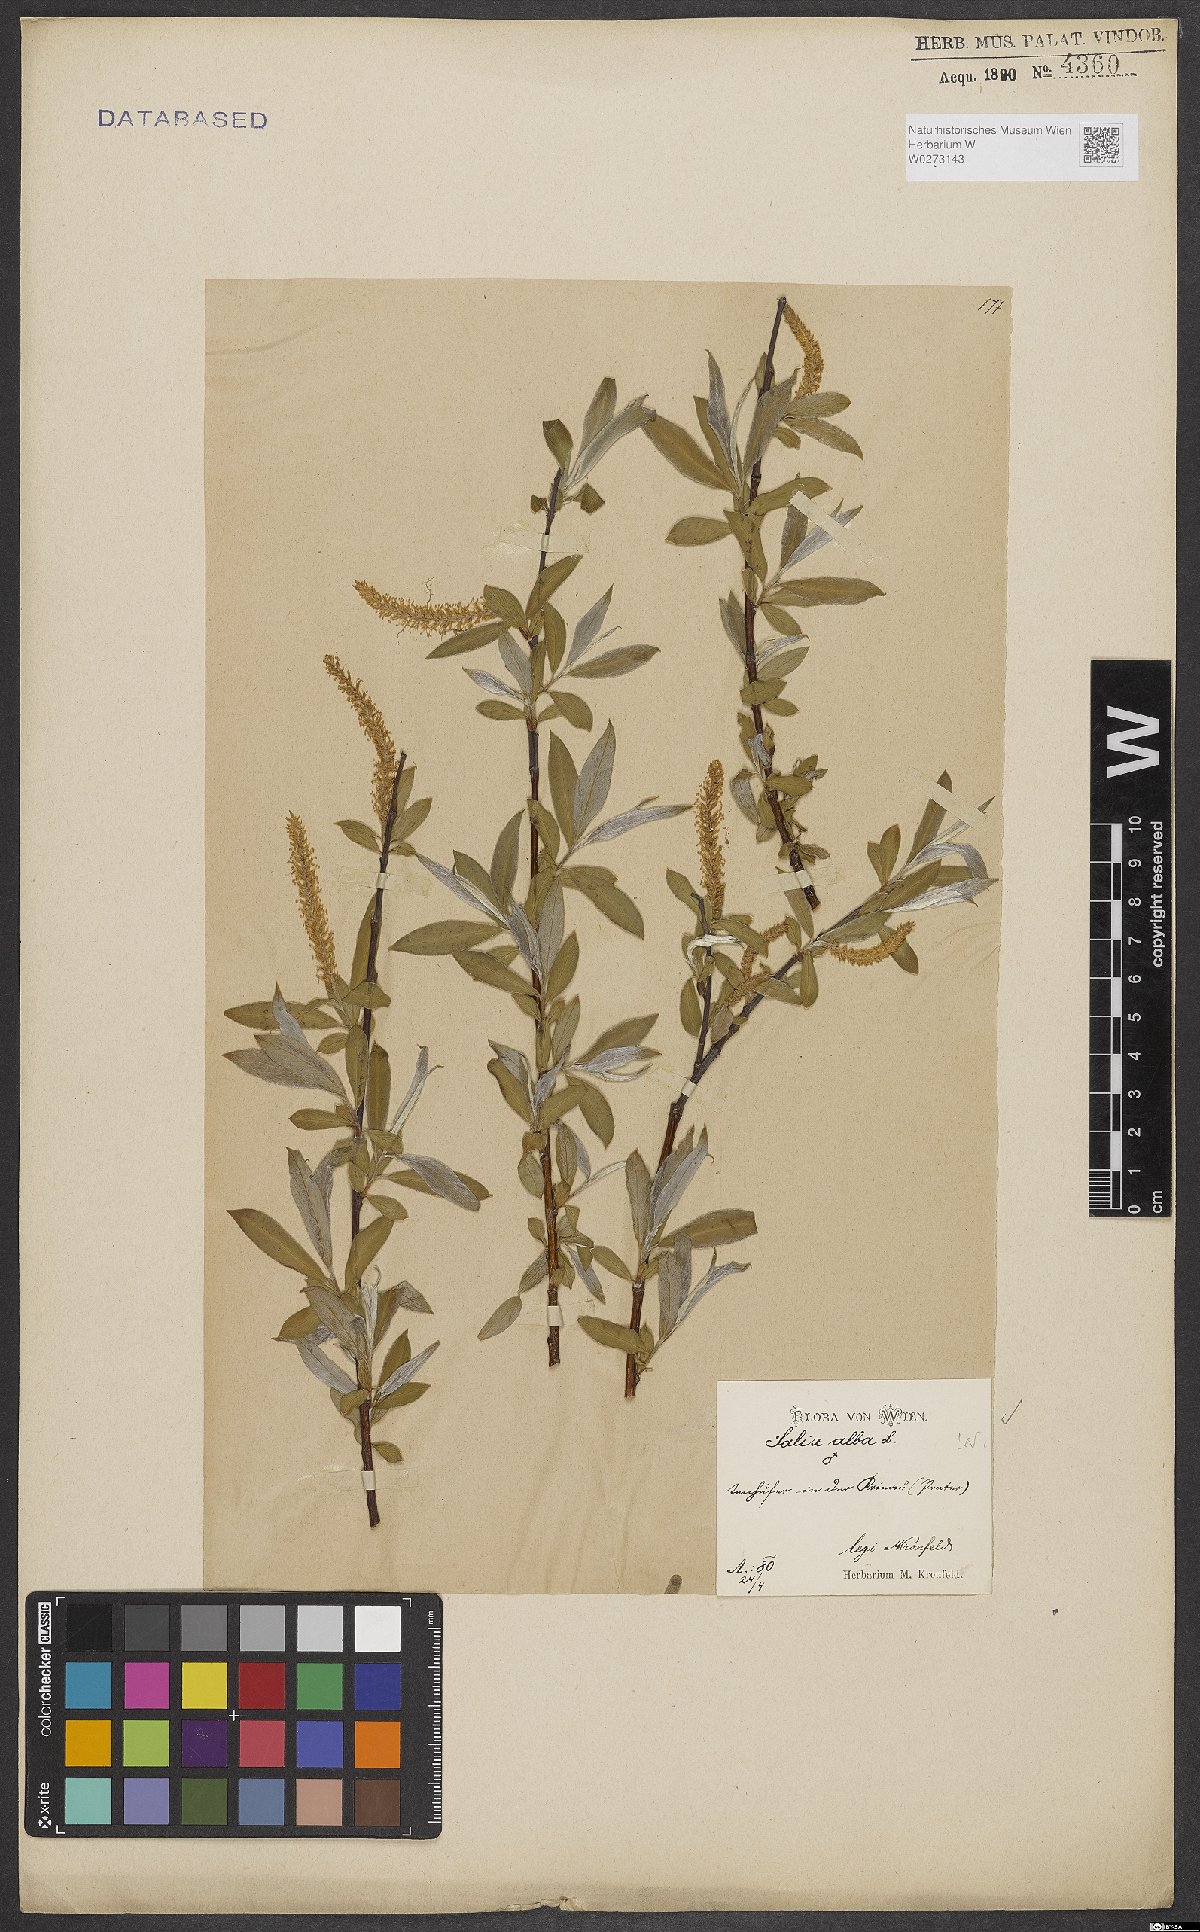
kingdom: Plantae
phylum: Tracheophyta
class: Magnoliopsida
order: Malpighiales
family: Salicaceae
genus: Salix
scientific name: Salix alba
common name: White willow
